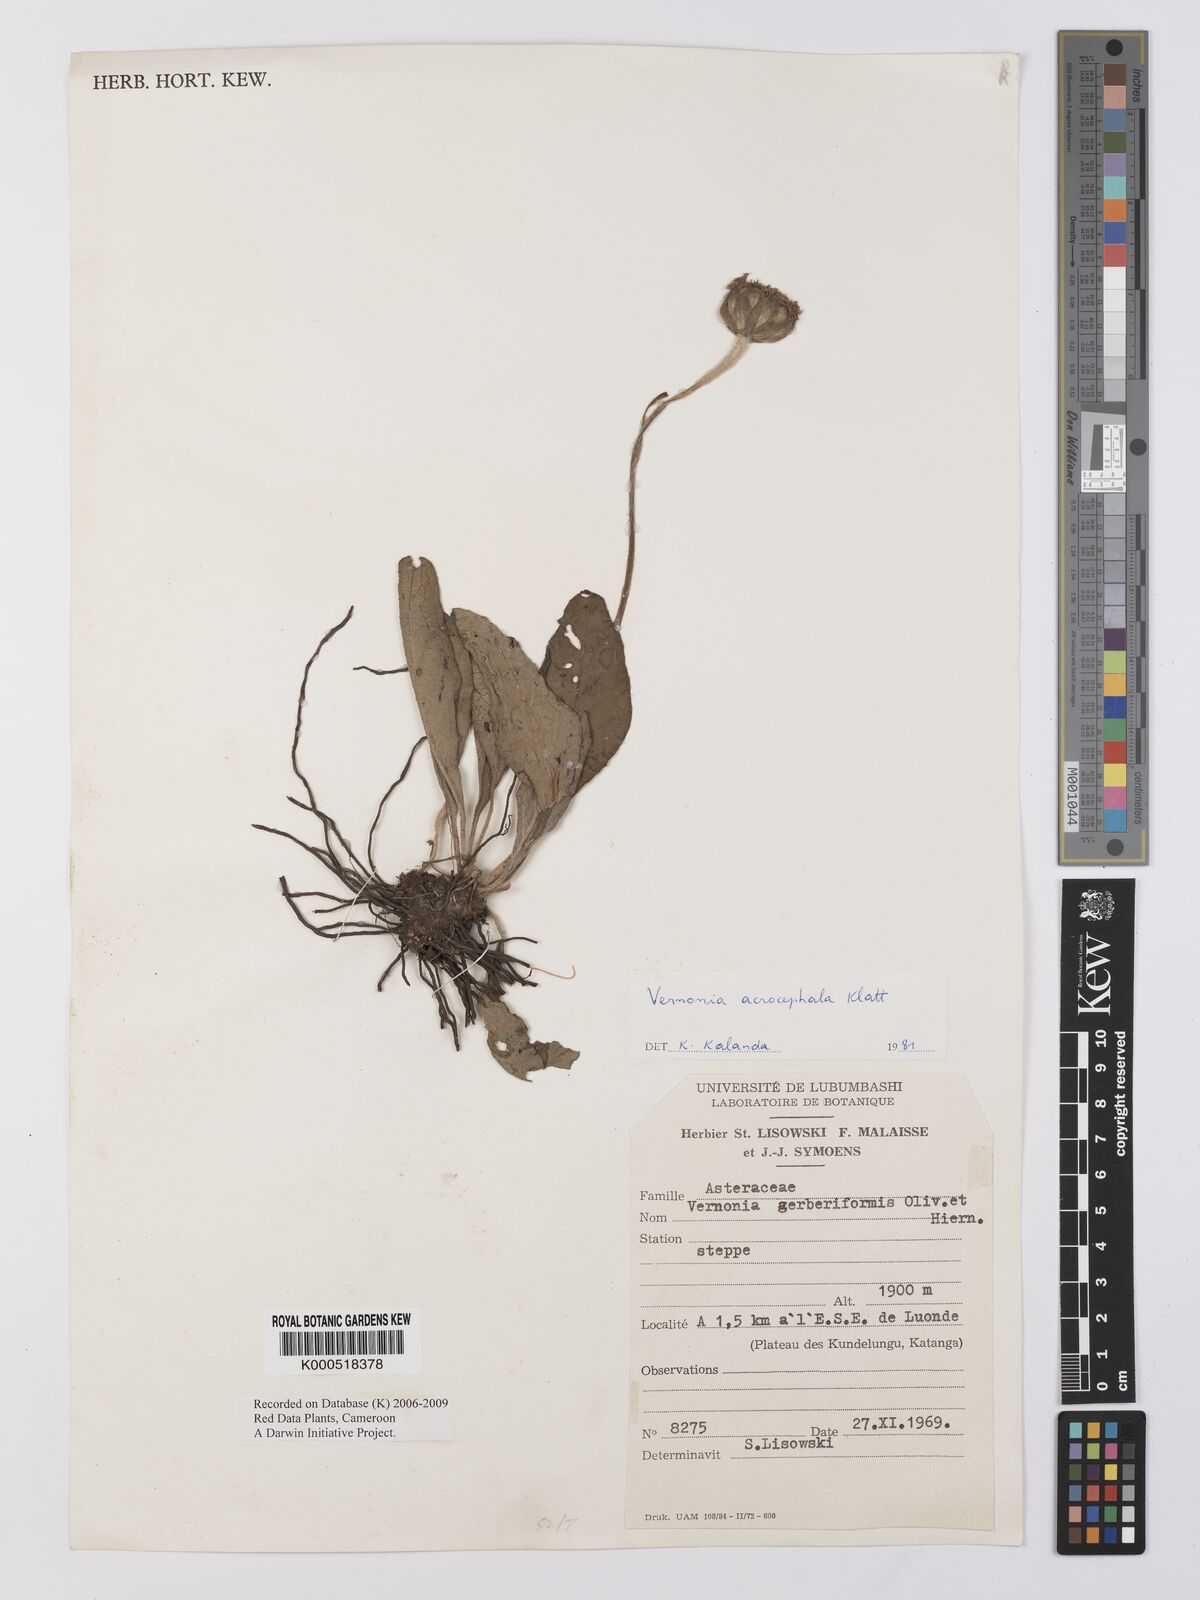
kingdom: Plantae
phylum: Tracheophyta
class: Magnoliopsida
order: Asterales
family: Asteraceae
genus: Vernonella
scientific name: Vernonella acrocephala
